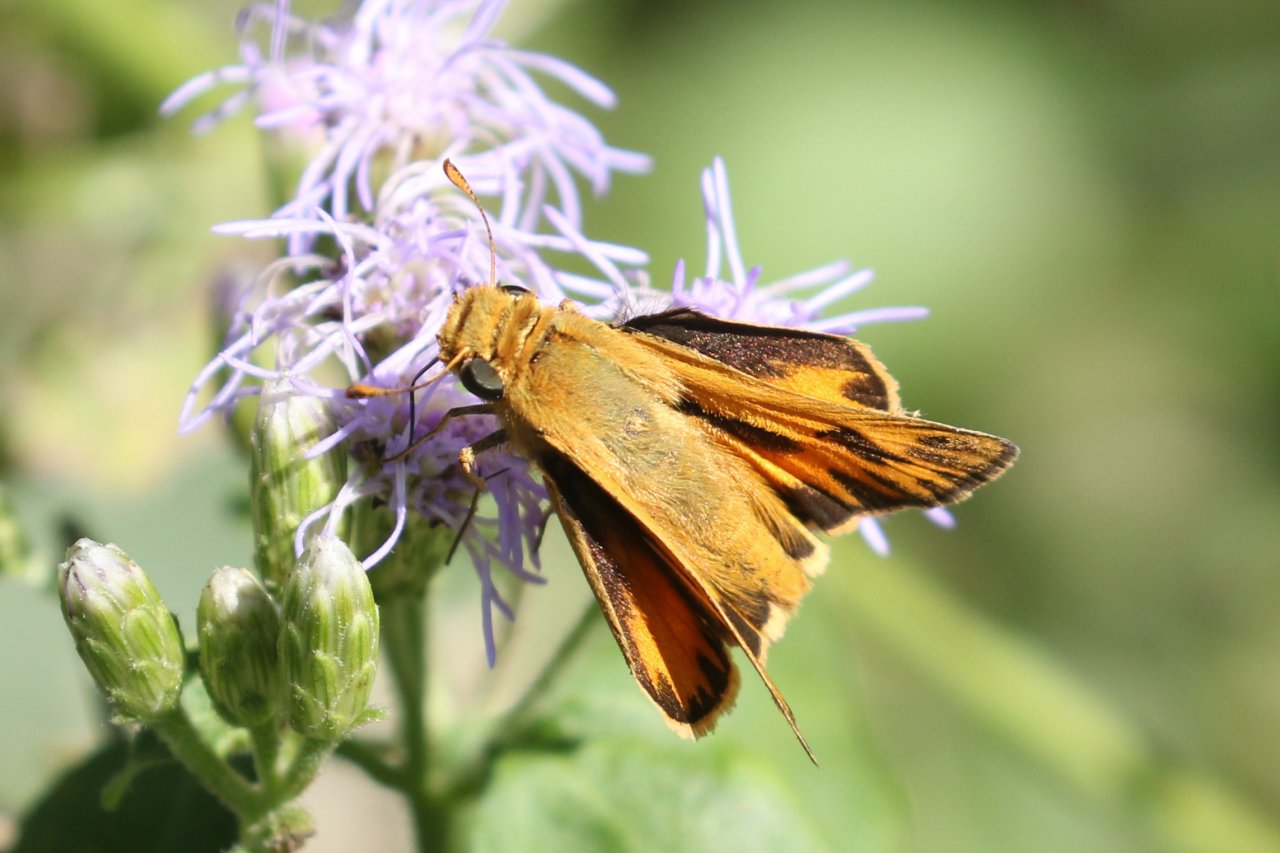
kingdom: Animalia
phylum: Arthropoda
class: Insecta
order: Lepidoptera
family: Hesperiidae
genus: Hylephila
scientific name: Hylephila phyleus
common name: Fiery Skipper
